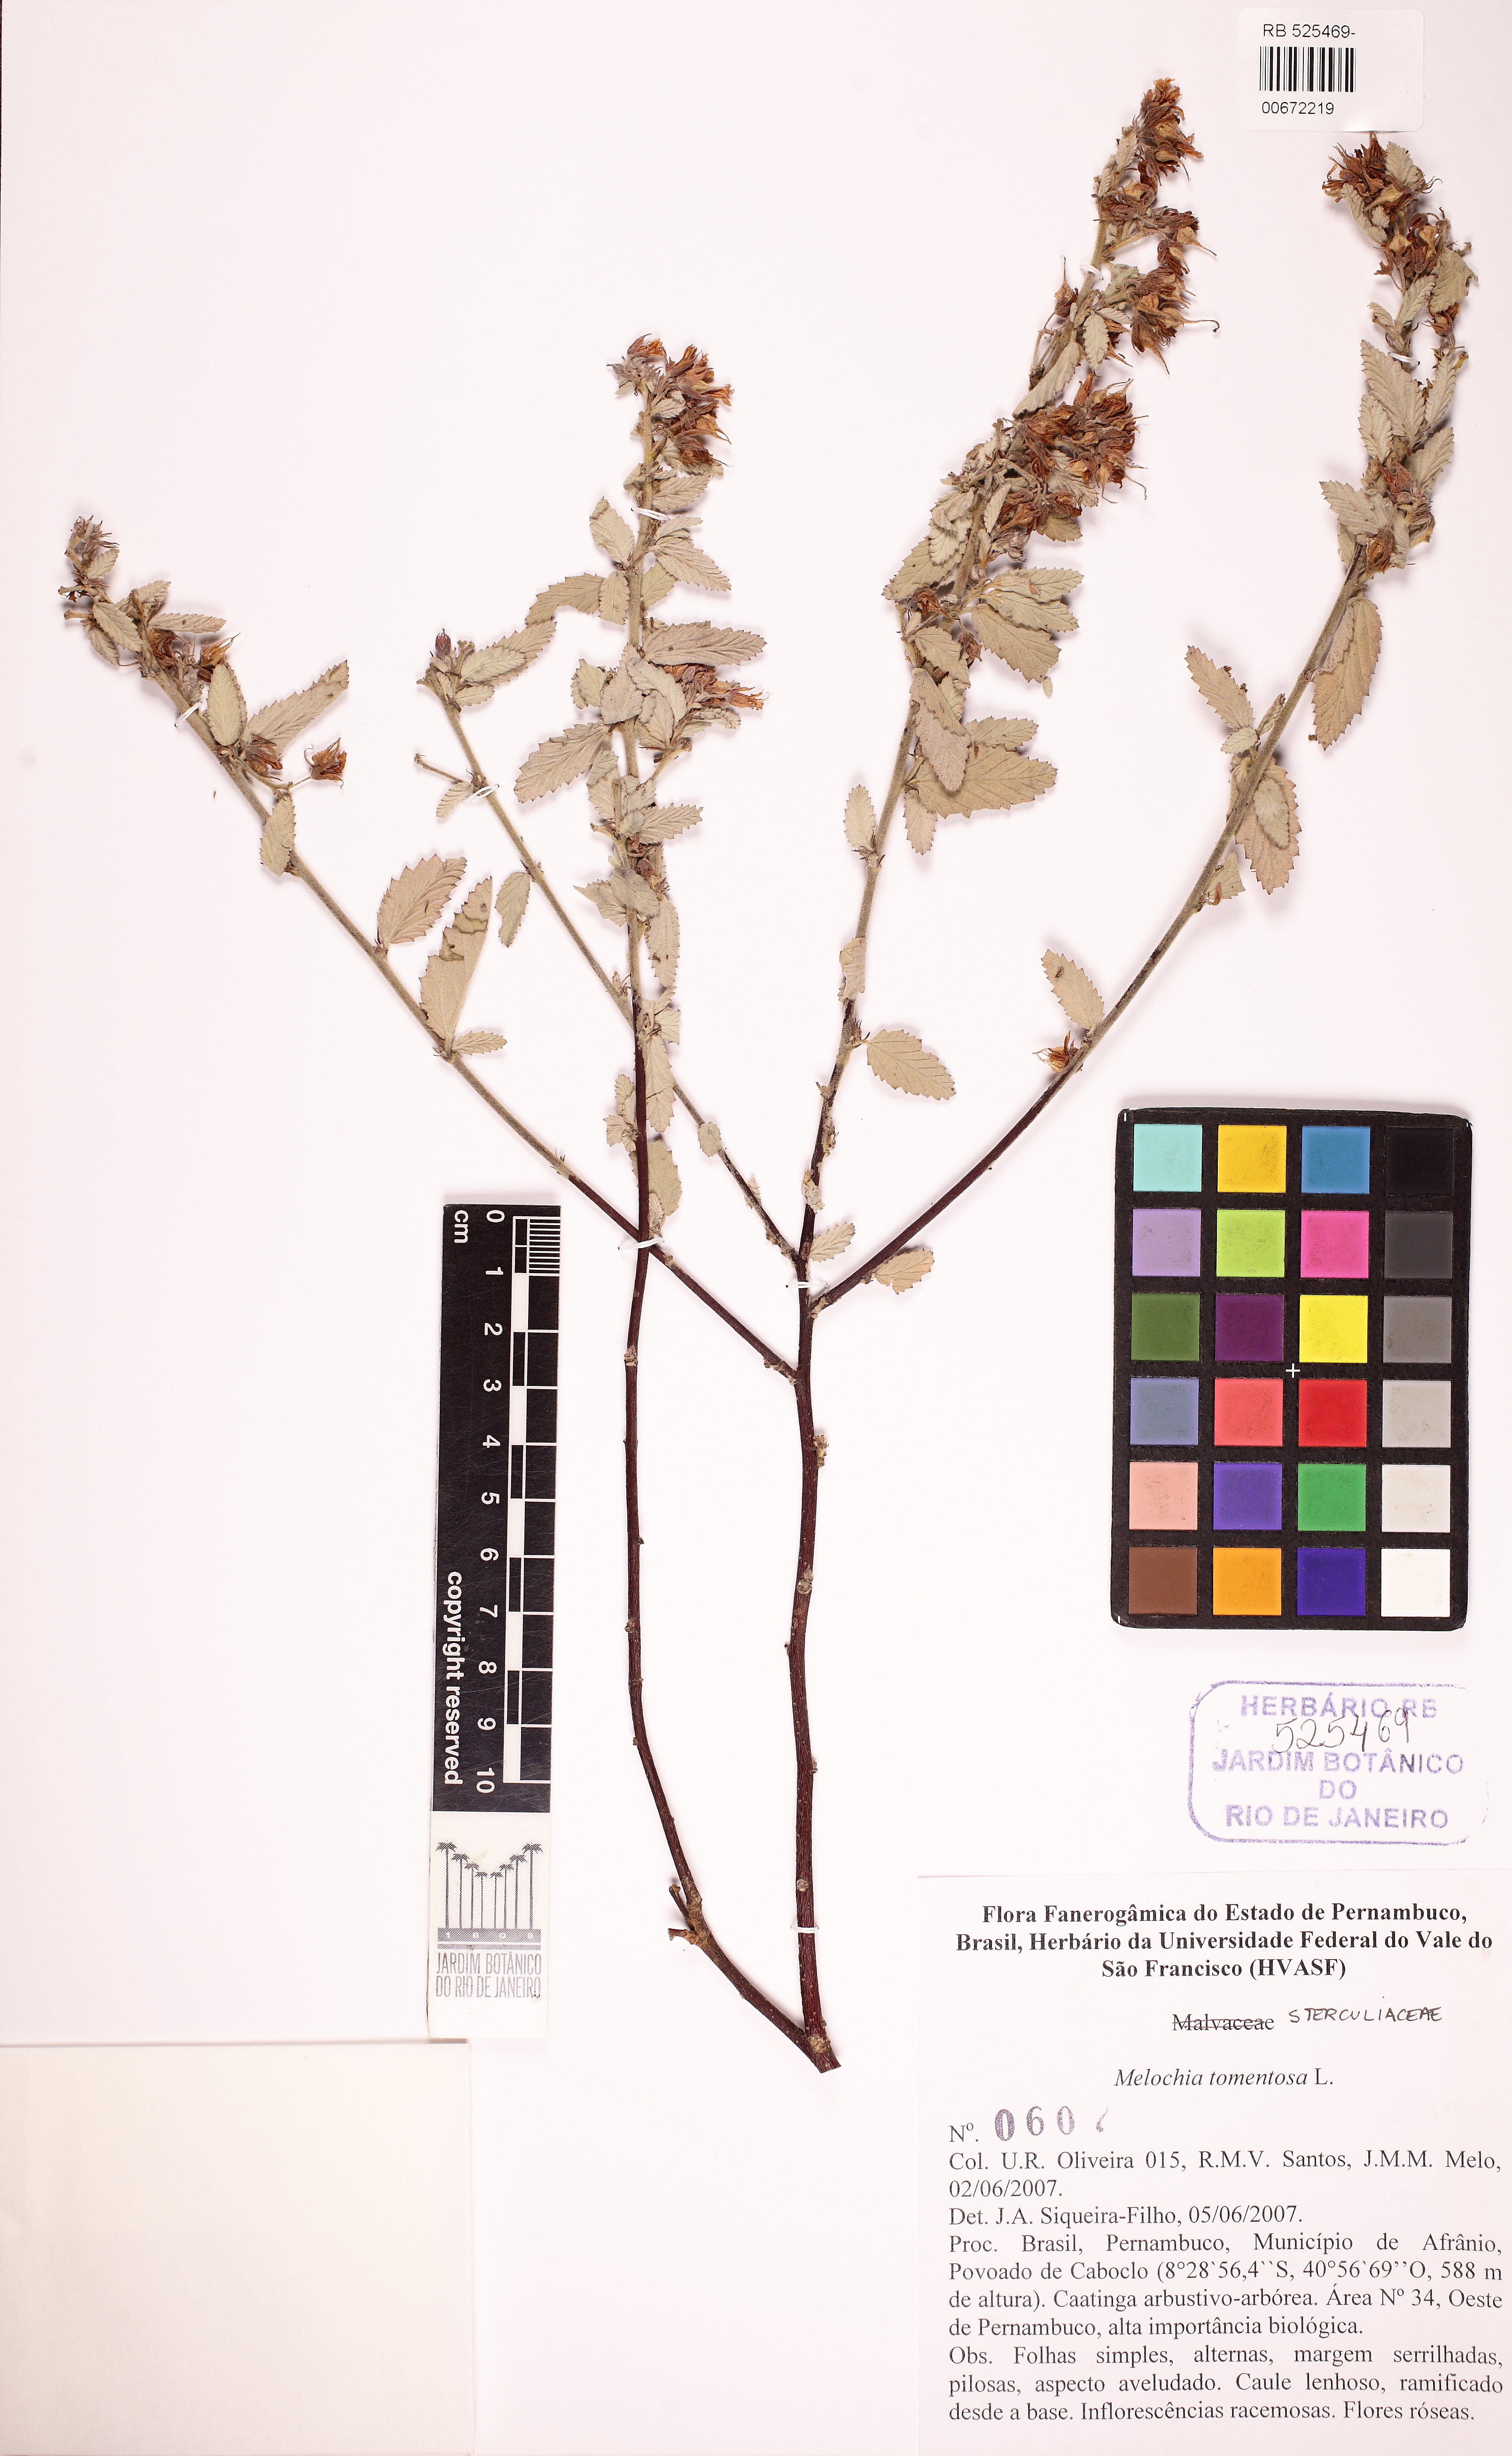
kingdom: Plantae
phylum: Tracheophyta
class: Magnoliopsida
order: Malvales
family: Malvaceae
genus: Melochia
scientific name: Melochia tomentosa
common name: Black torch
